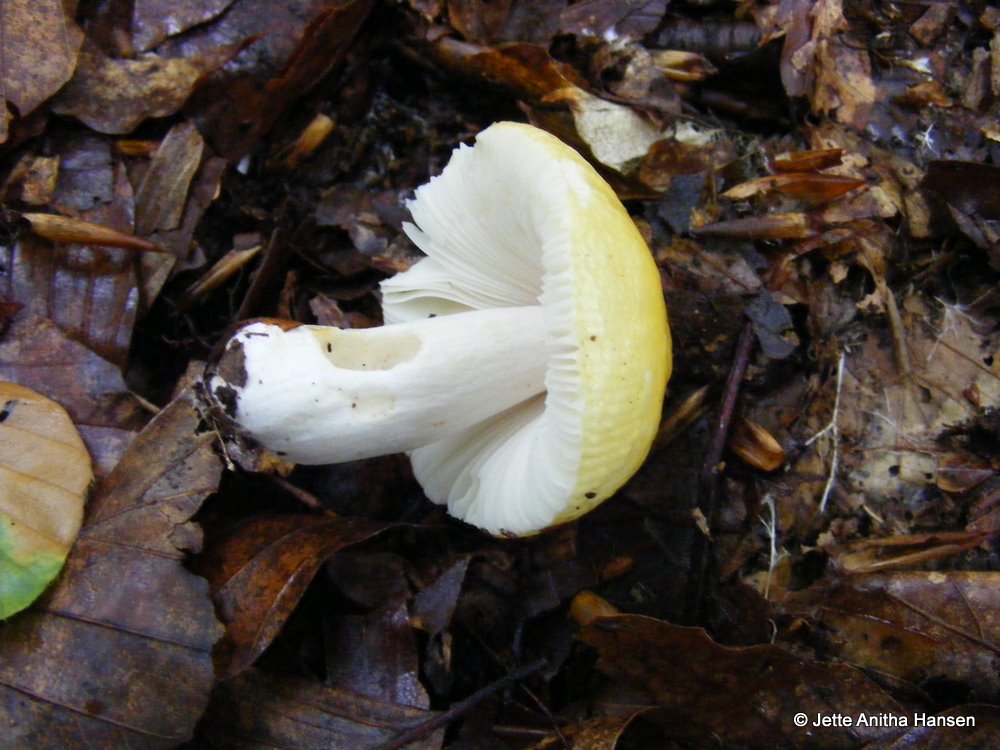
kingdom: Fungi
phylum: Basidiomycota
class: Agaricomycetes
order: Russulales
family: Russulaceae
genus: Russula
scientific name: Russula solaris
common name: sol-skørhat
